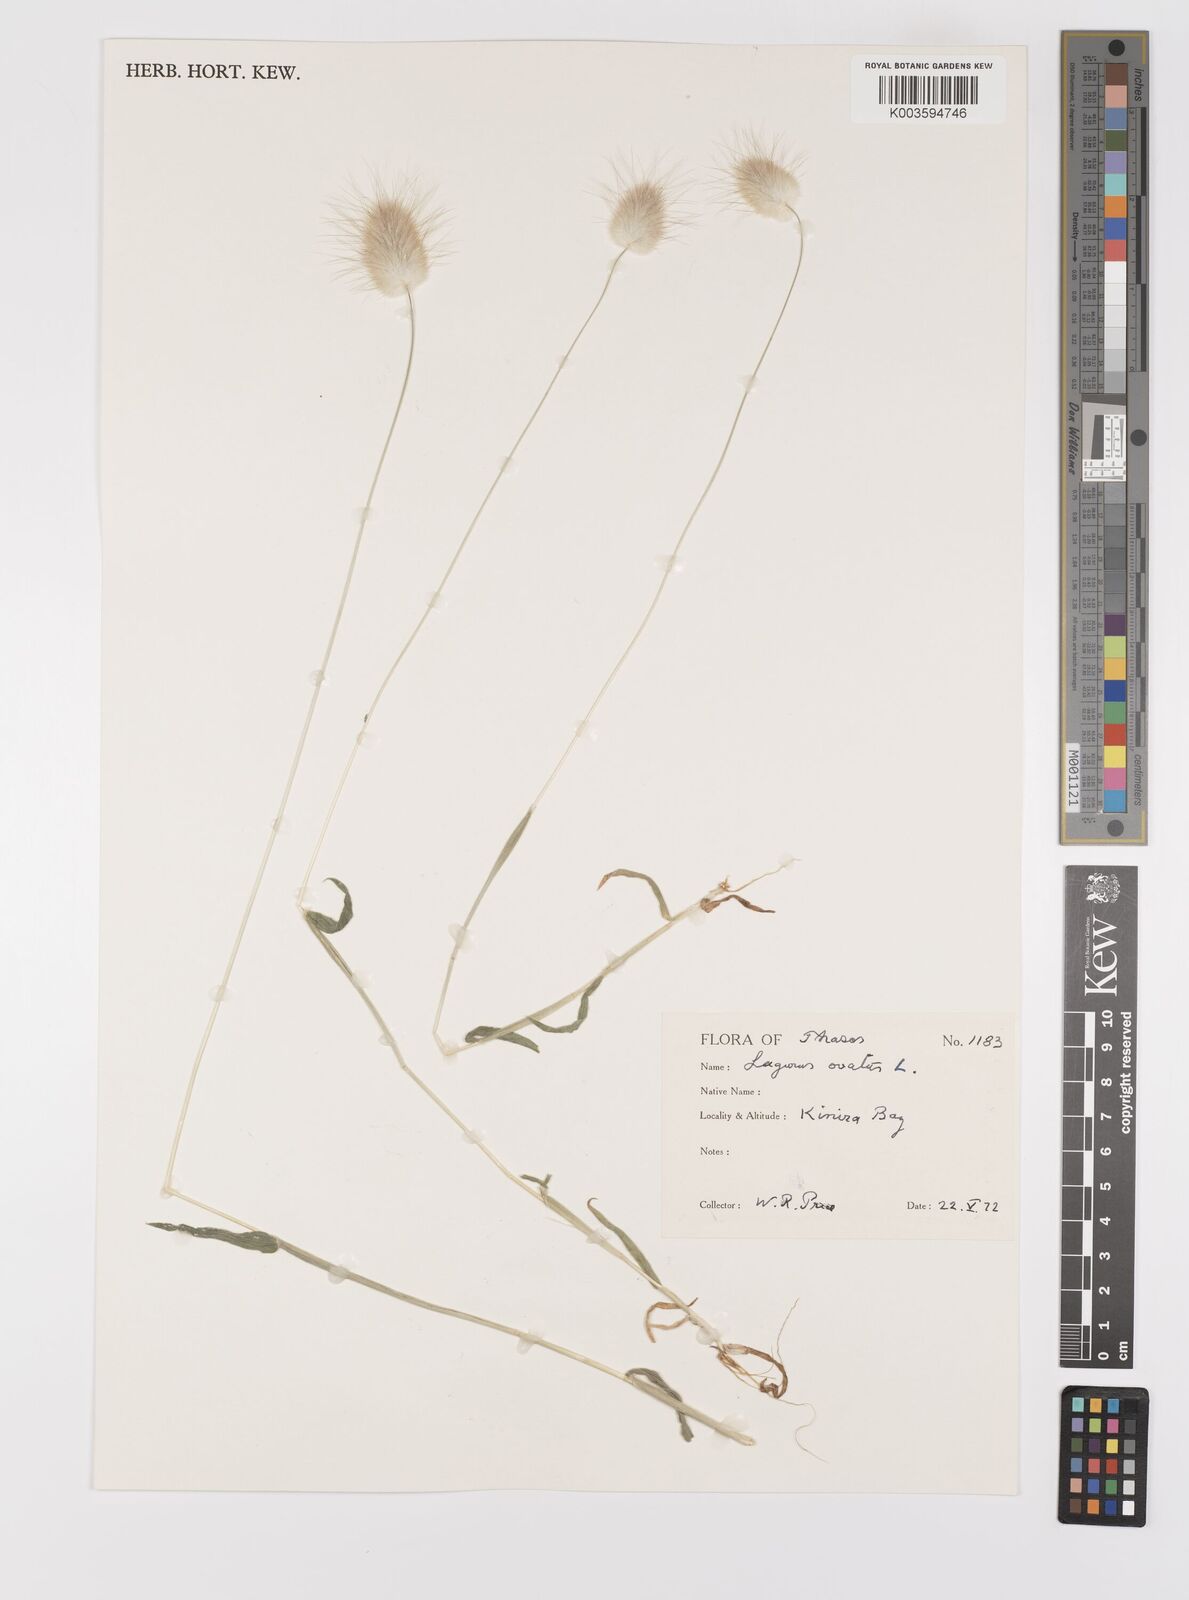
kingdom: Plantae
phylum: Tracheophyta
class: Liliopsida
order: Poales
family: Poaceae
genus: Lagurus
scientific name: Lagurus ovatus
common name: Hare's-tail
